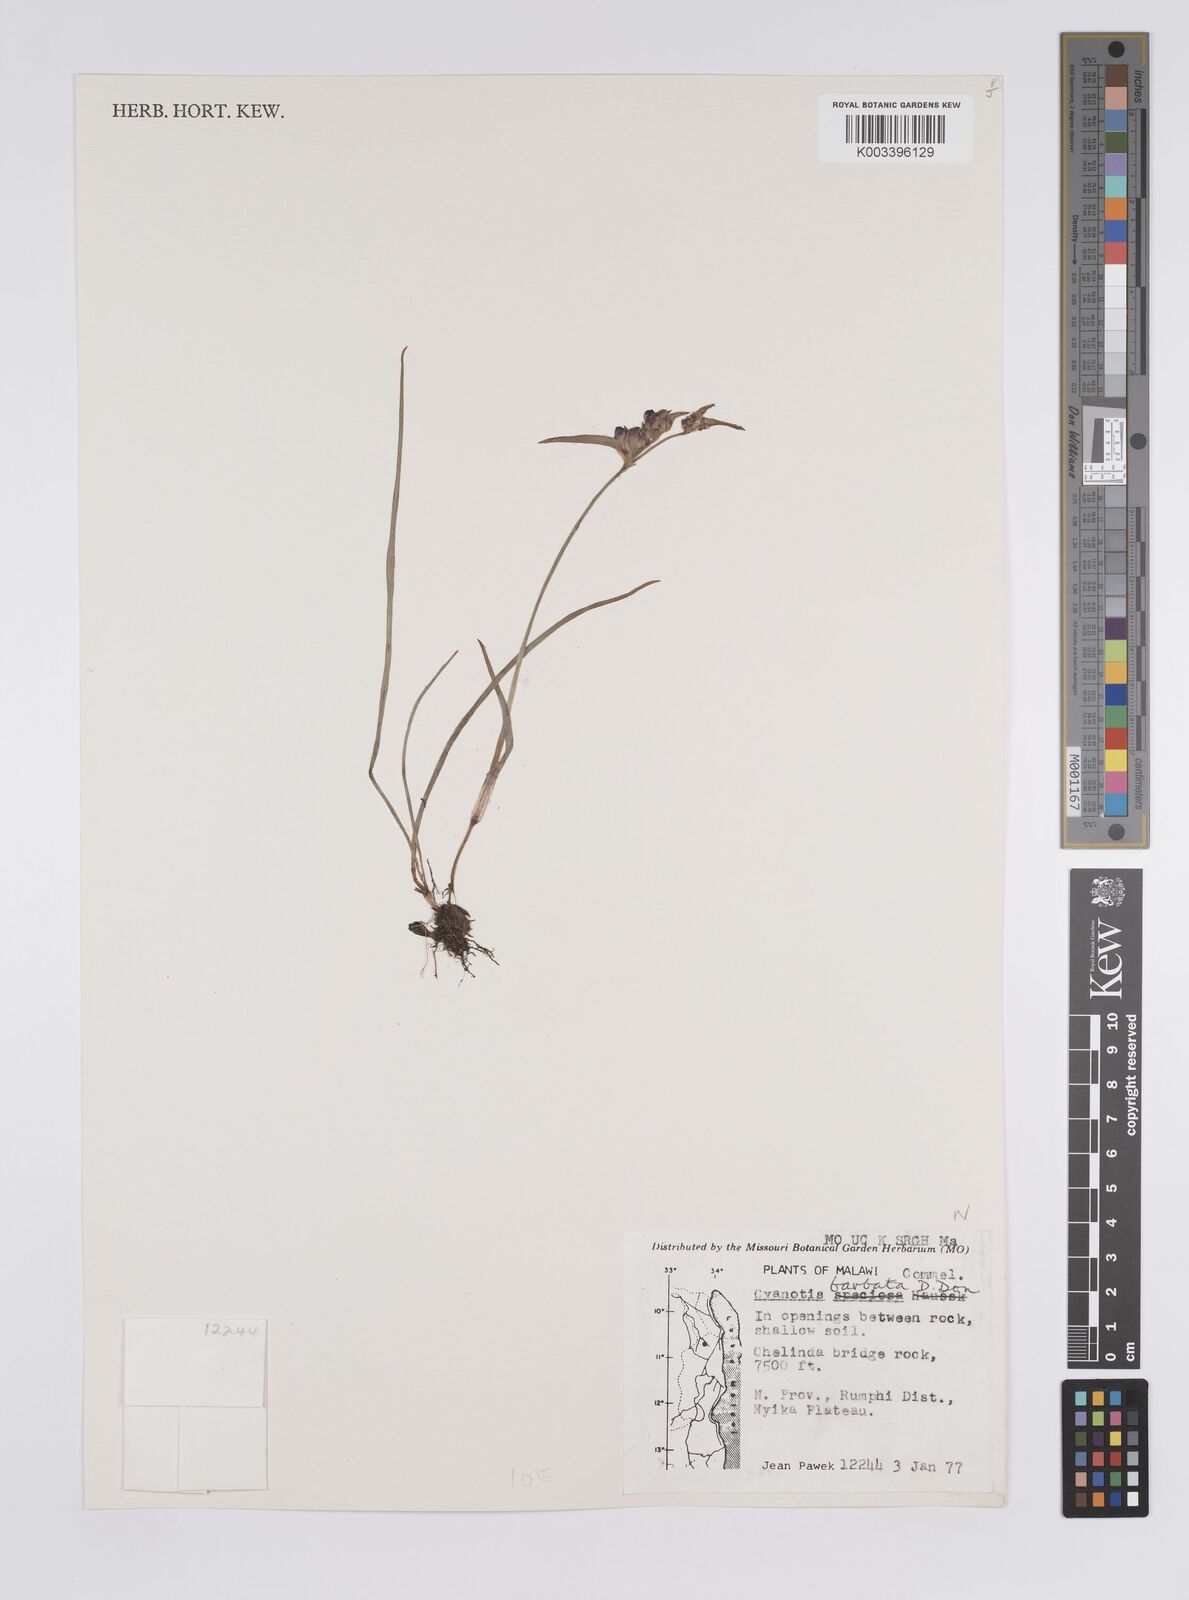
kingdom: Plantae
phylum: Tracheophyta
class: Liliopsida
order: Commelinales
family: Commelinaceae
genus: Cyanotis
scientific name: Cyanotis vaga
